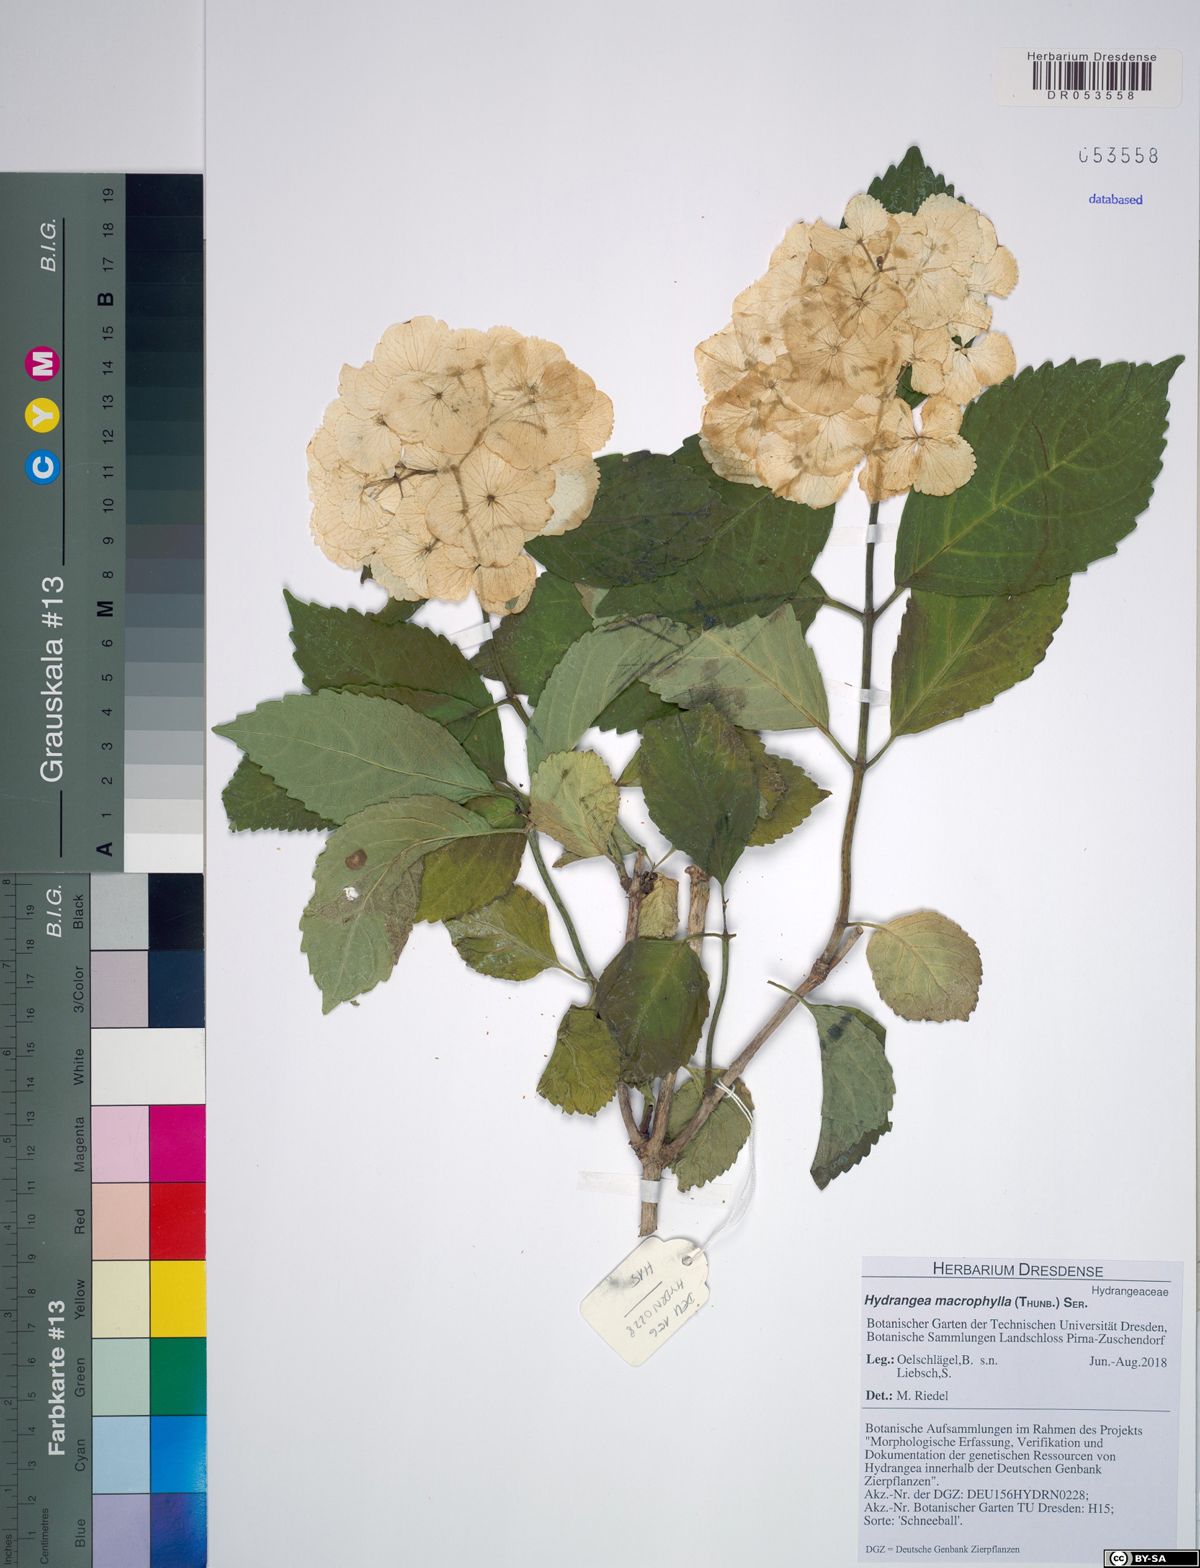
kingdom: Plantae
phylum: Tracheophyta
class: Magnoliopsida
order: Cornales
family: Hydrangeaceae
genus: Hydrangea
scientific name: Hydrangea macrophylla
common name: Hydrangea
